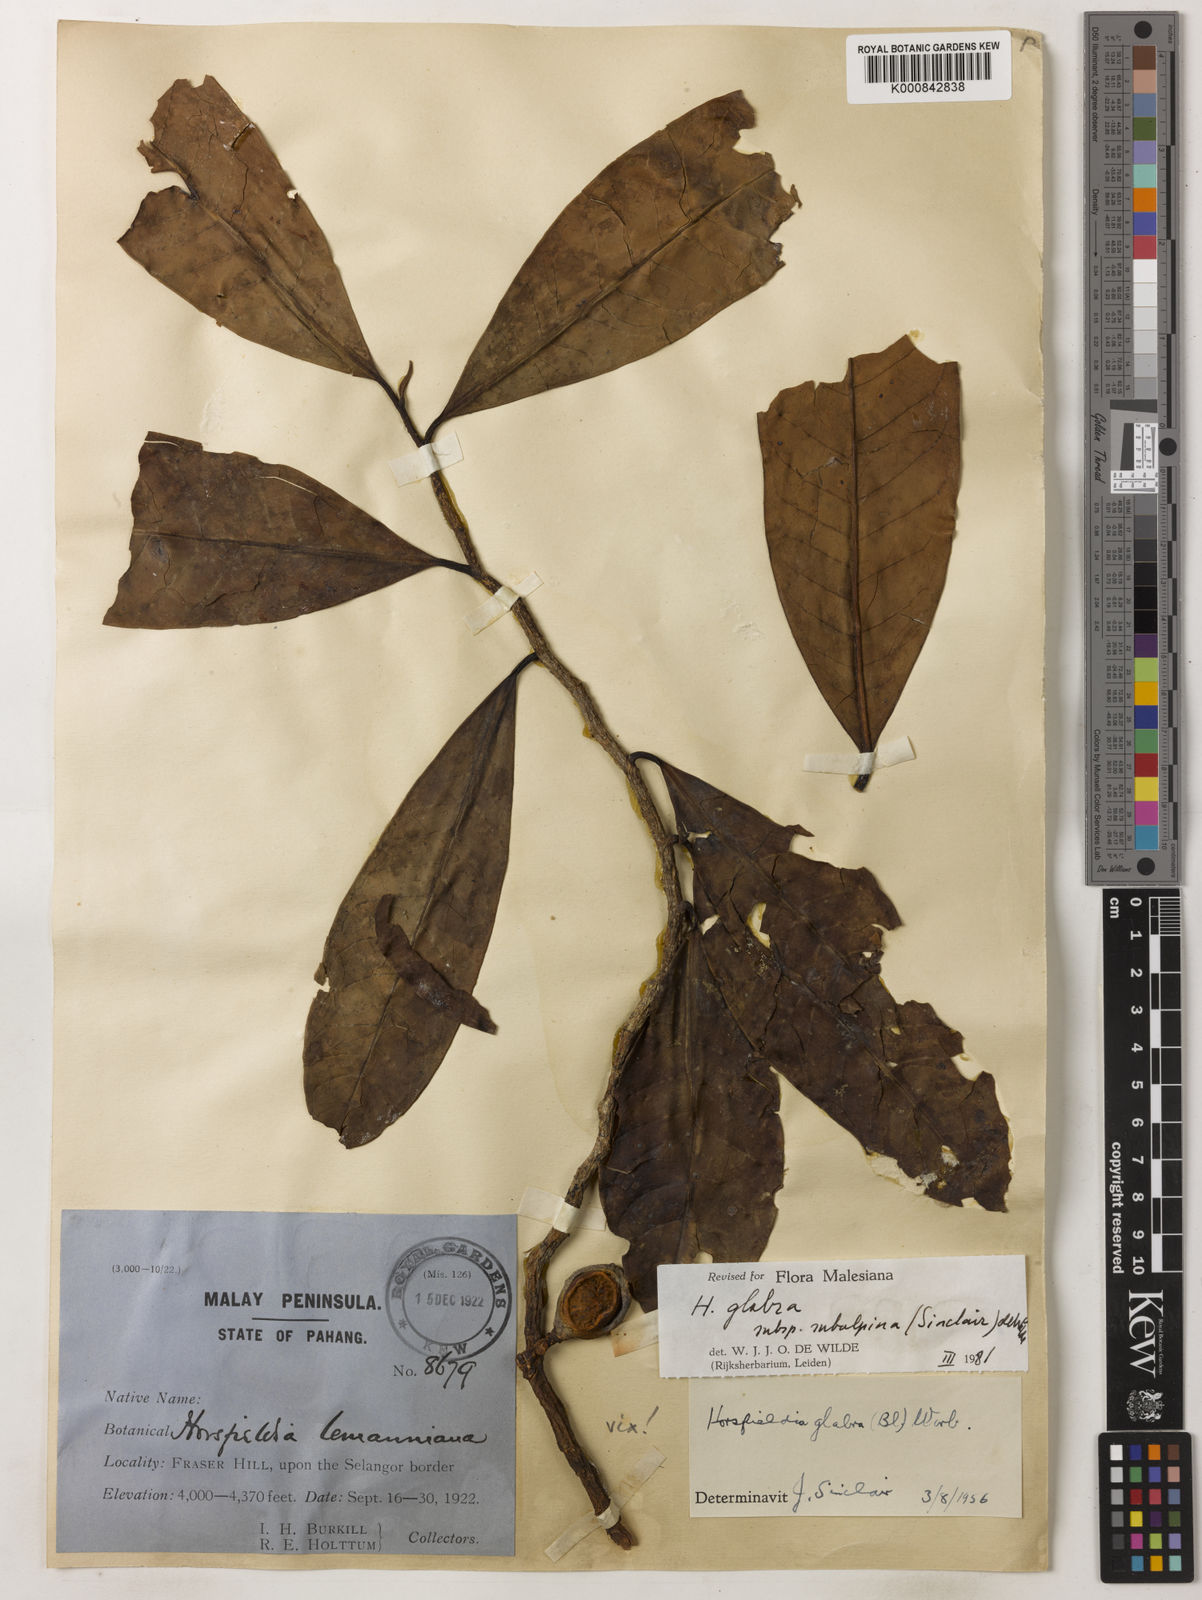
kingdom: Plantae
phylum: Tracheophyta
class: Magnoliopsida
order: Magnoliales
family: Myristicaceae
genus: Horsfieldia
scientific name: Horsfieldia
